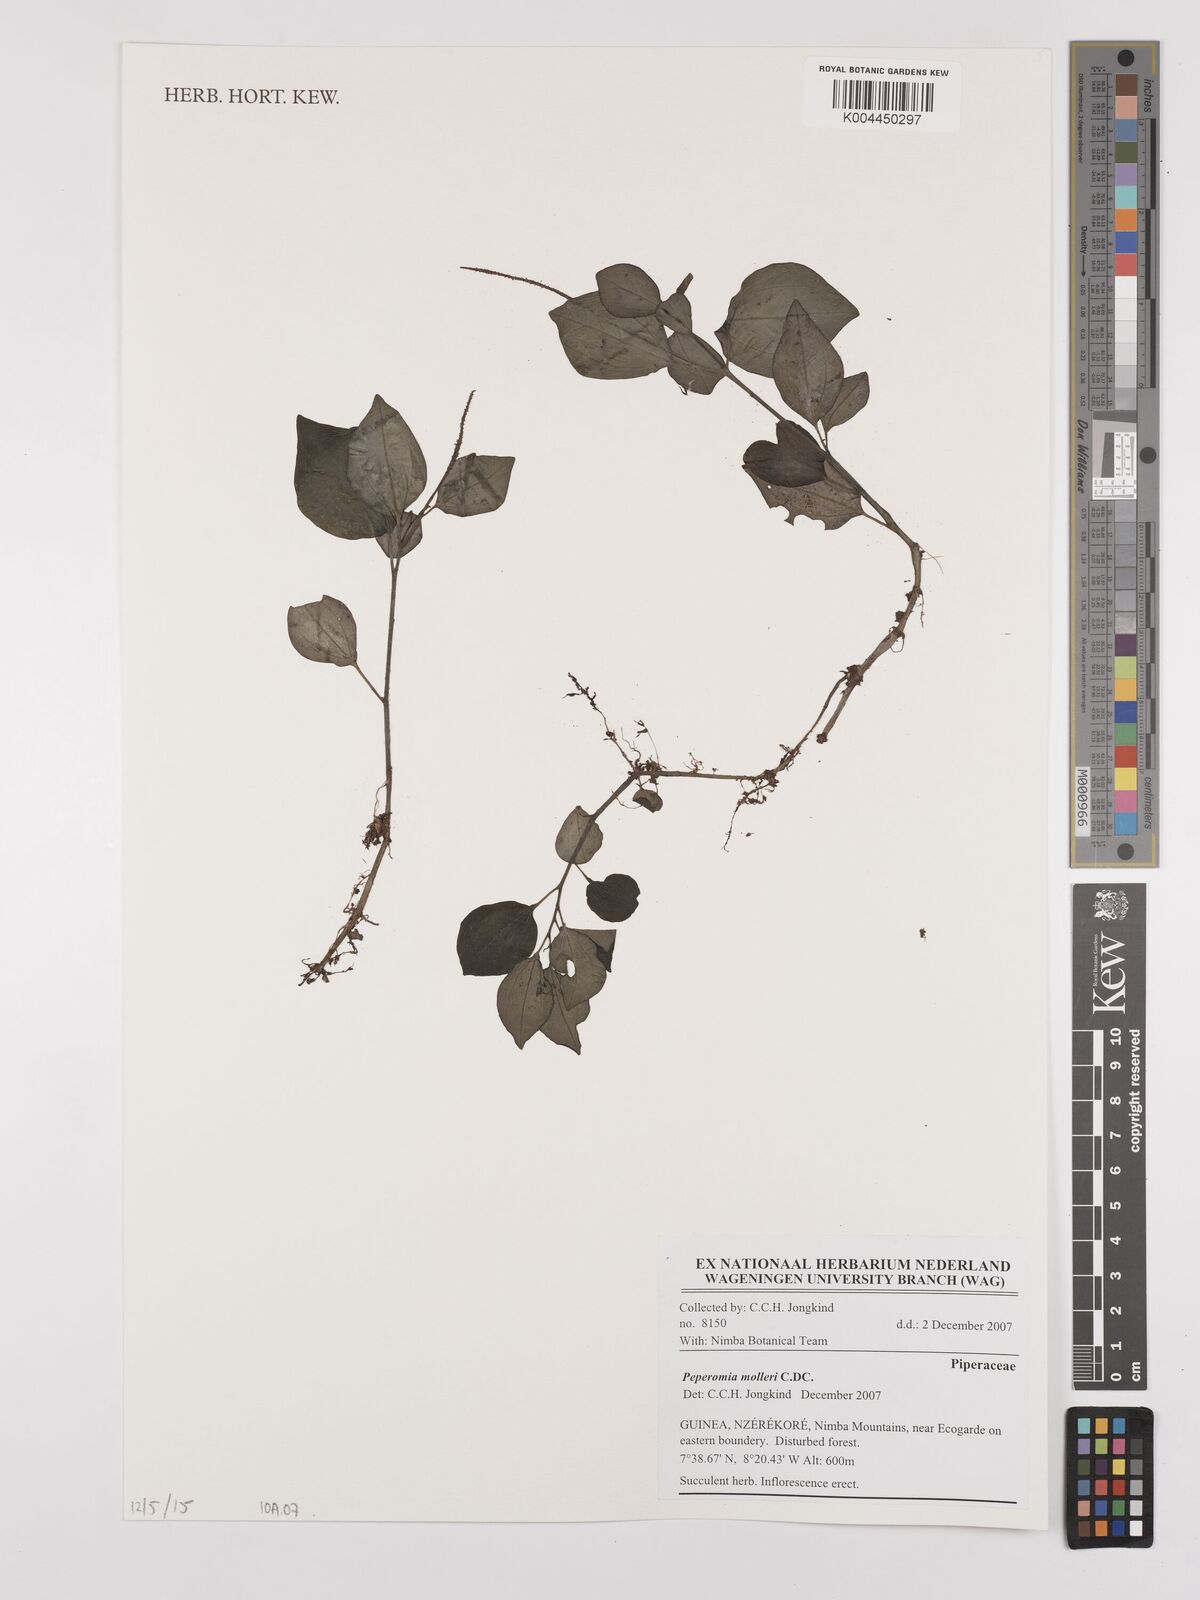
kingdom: Plantae
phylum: Tracheophyta
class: Magnoliopsida
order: Piperales
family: Piperaceae
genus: Peperomia
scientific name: Peperomia molleri
